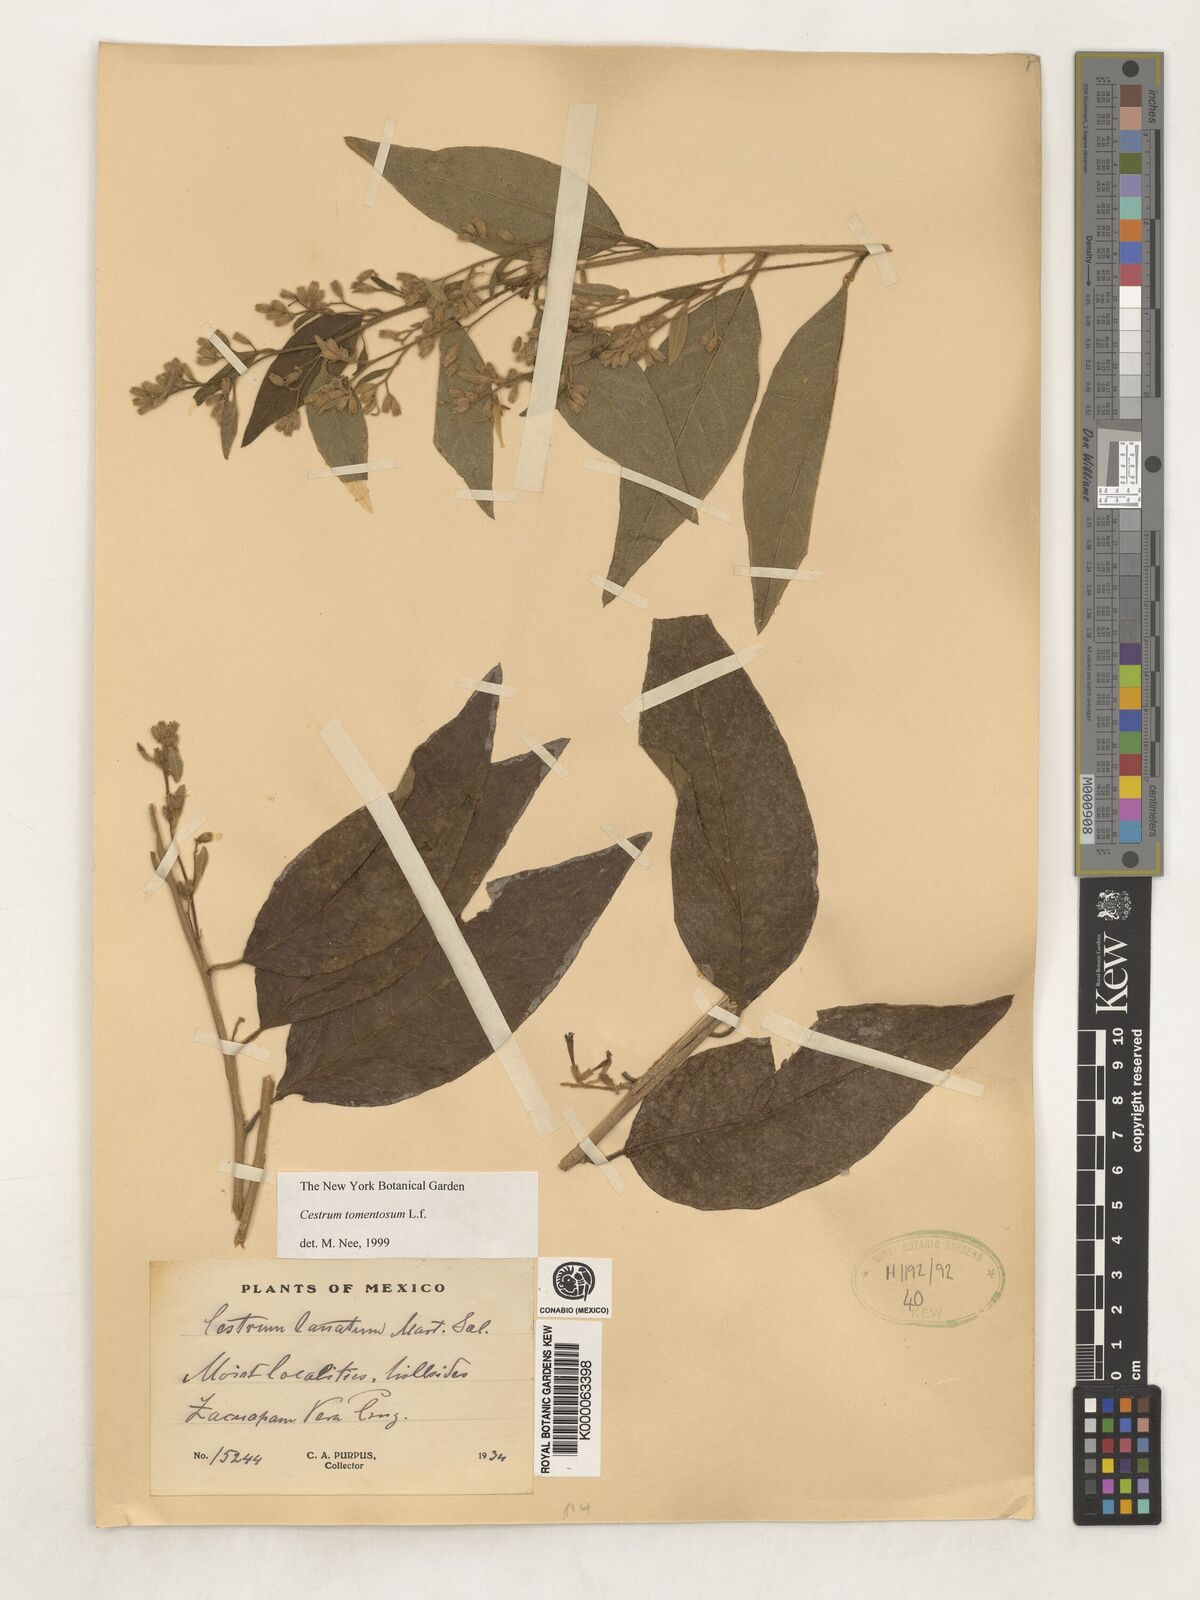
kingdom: Plantae
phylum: Tracheophyta
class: Magnoliopsida
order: Solanales
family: Solanaceae
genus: Cestrum
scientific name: Cestrum tomentosum
